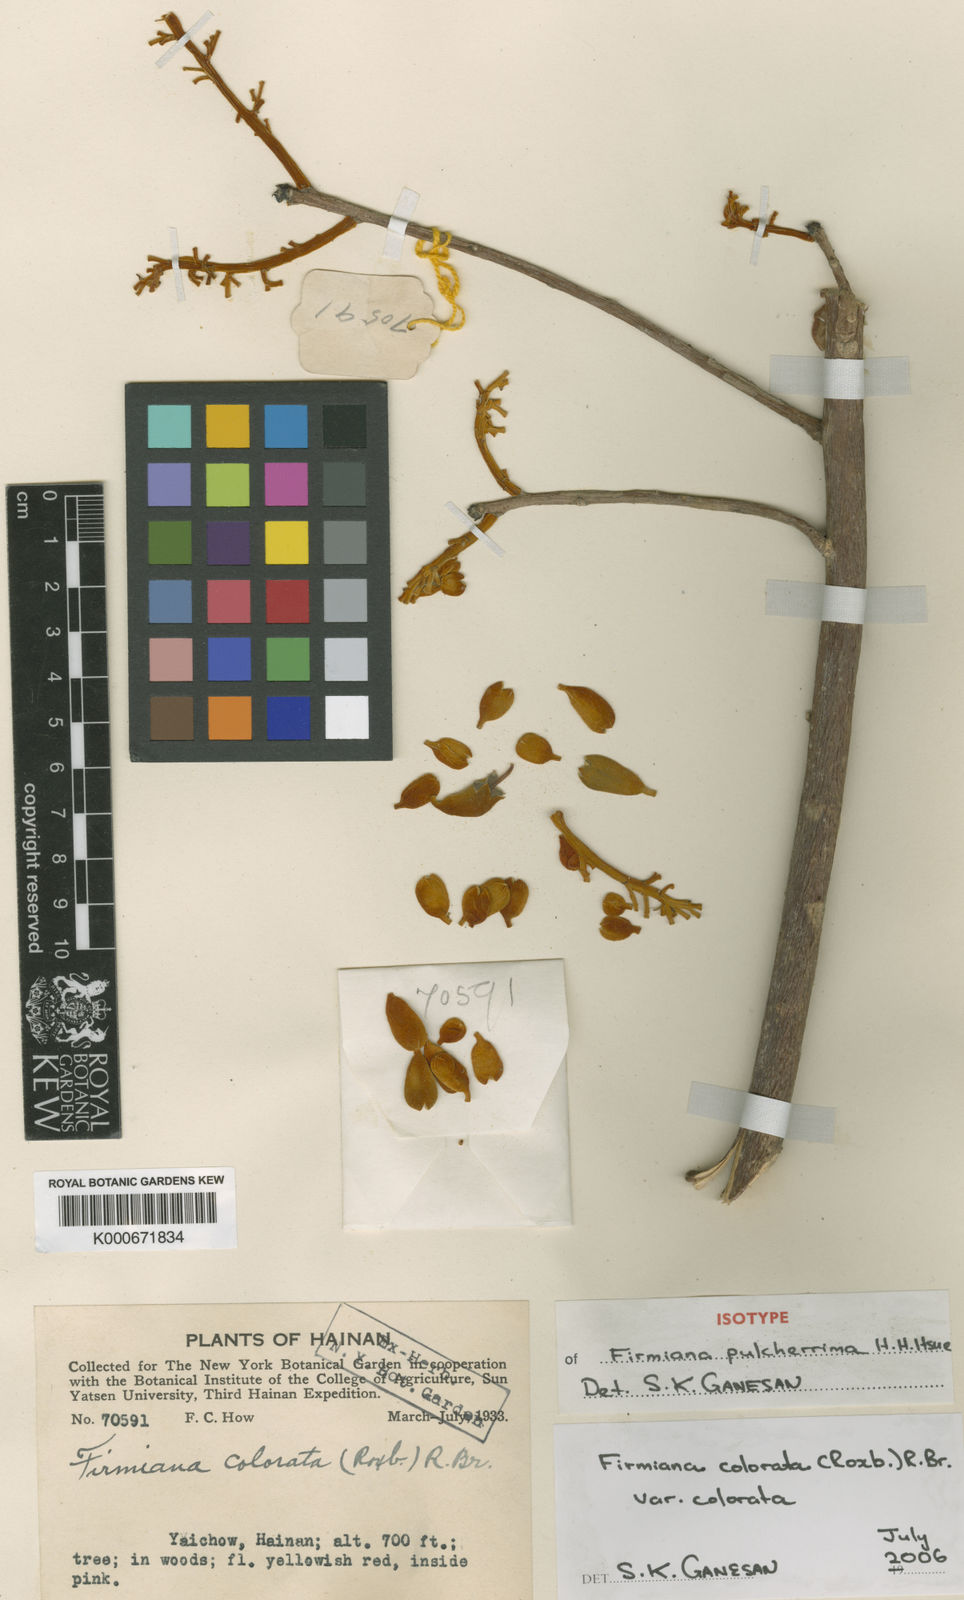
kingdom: Plantae
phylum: Tracheophyta
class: Magnoliopsida
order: Malvales
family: Malvaceae
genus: Firmiana
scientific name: Firmiana colorata
